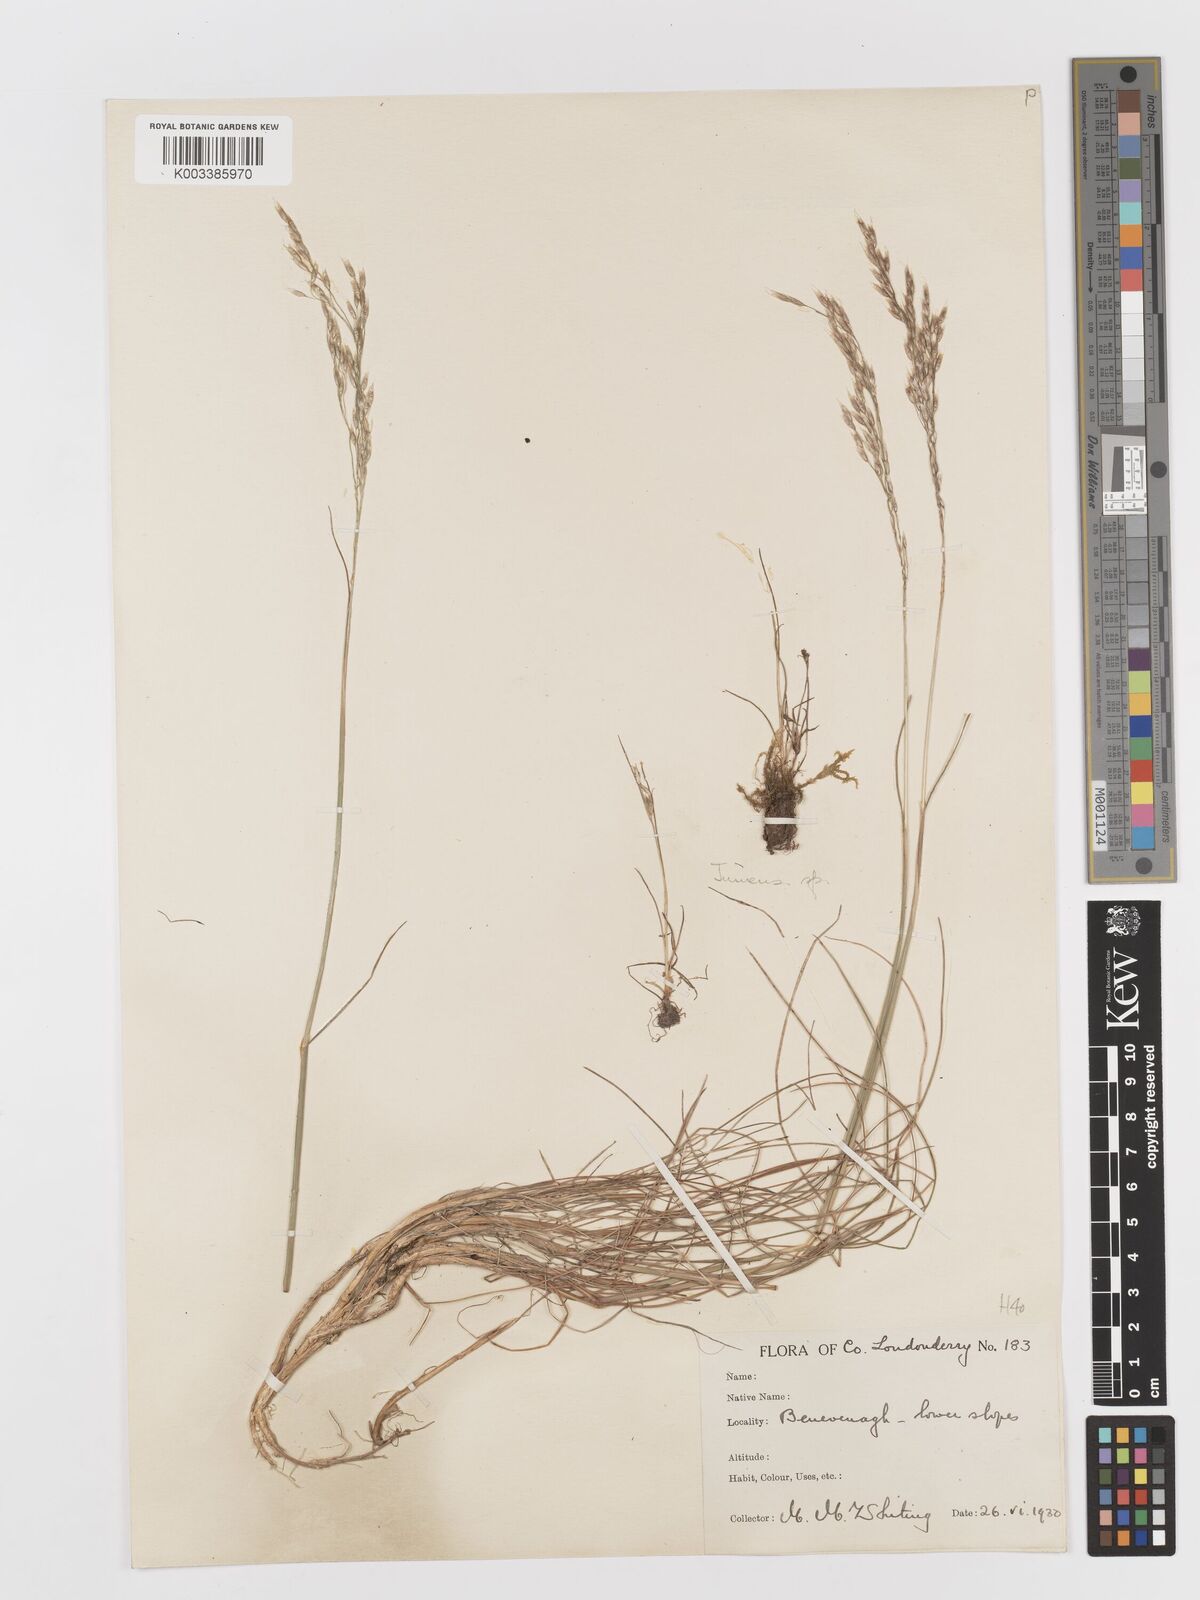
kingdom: Plantae
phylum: Tracheophyta
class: Liliopsida
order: Poales
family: Poaceae
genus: Avenella
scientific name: Avenella flexuosa
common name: Wavy hairgrass
